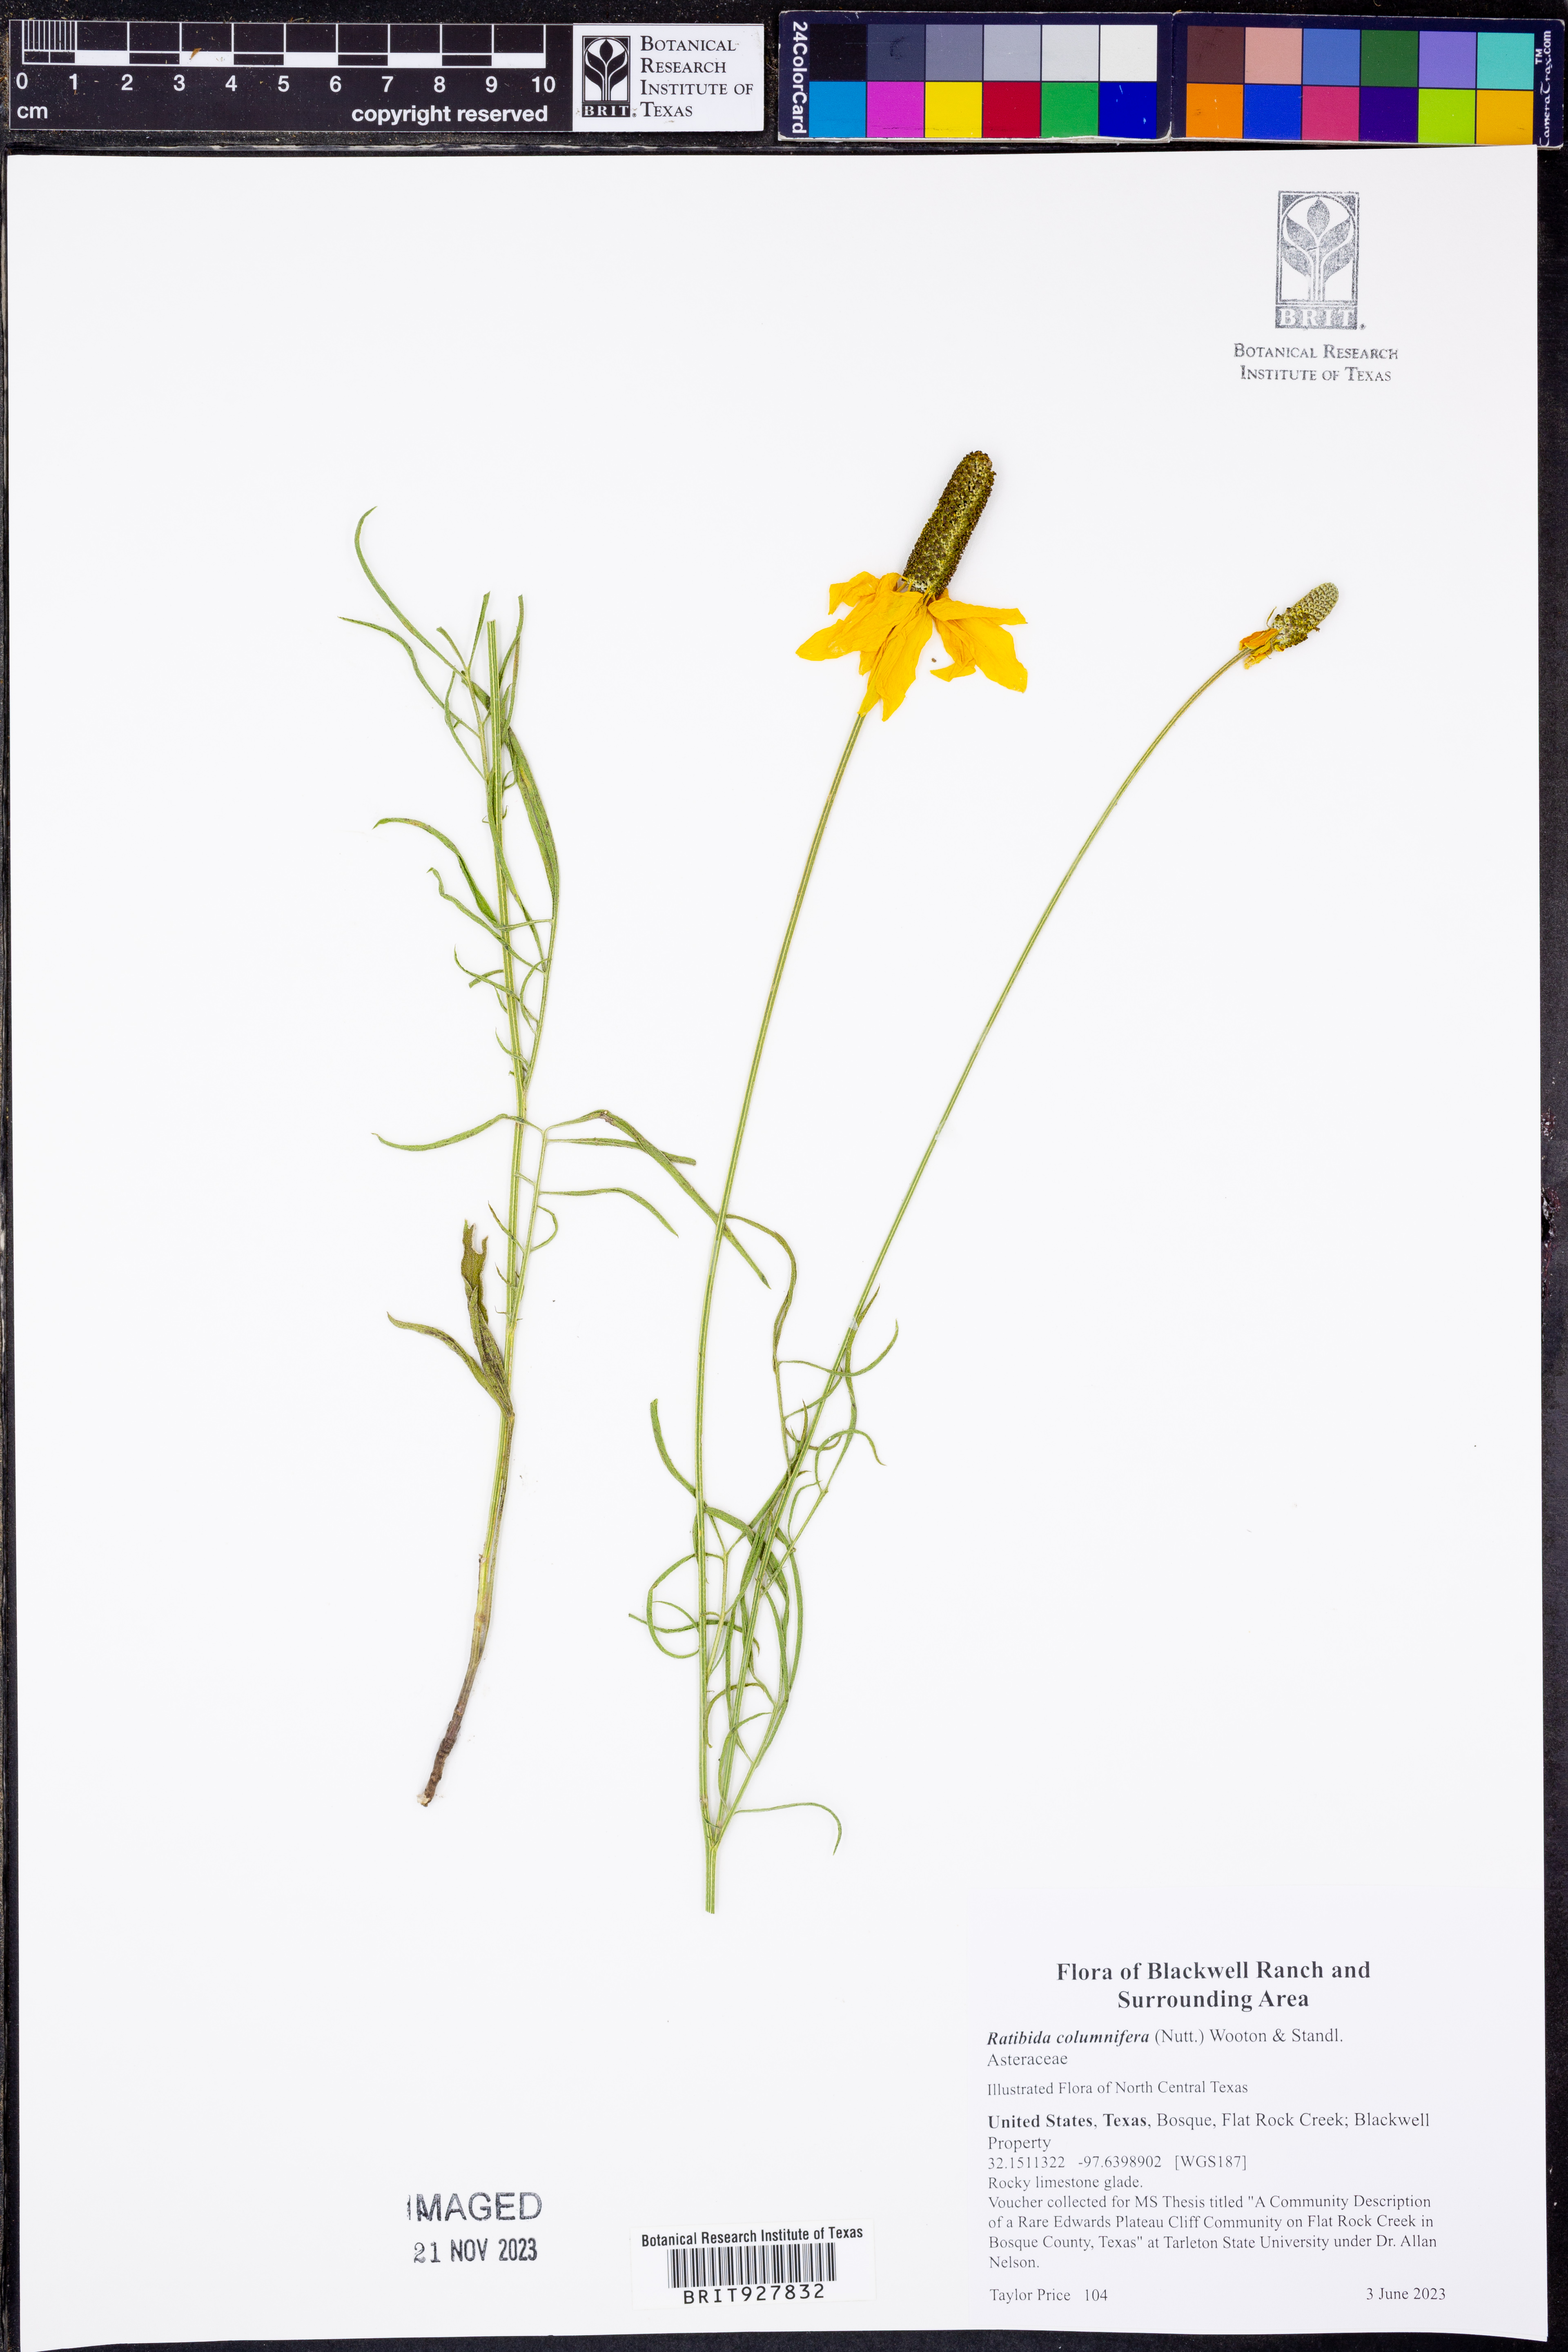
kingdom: Plantae
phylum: Tracheophyta
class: Magnoliopsida
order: Asterales
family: Asteraceae
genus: Ratibida
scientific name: Ratibida columnifera
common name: Prairie coneflower
